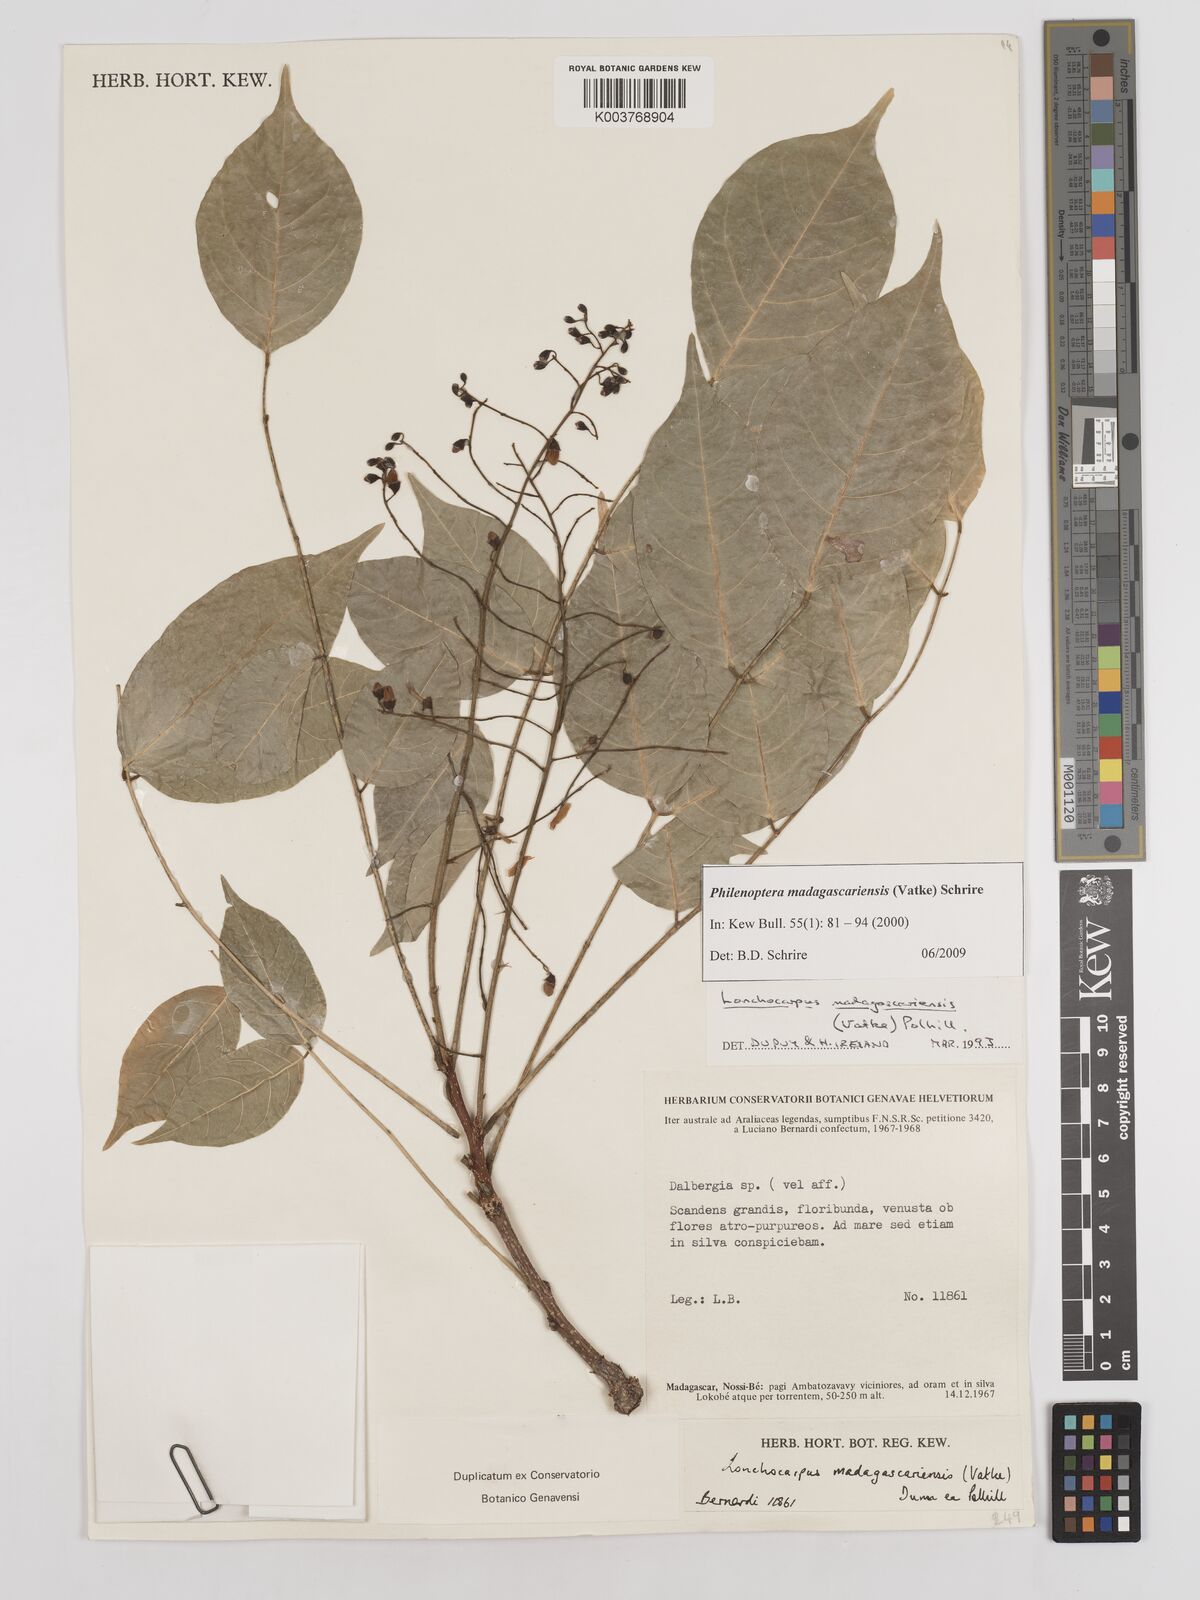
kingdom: Plantae
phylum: Tracheophyta
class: Magnoliopsida
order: Fabales
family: Fabaceae
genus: Lonchocarpus
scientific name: Lonchocarpus madagascariensis
